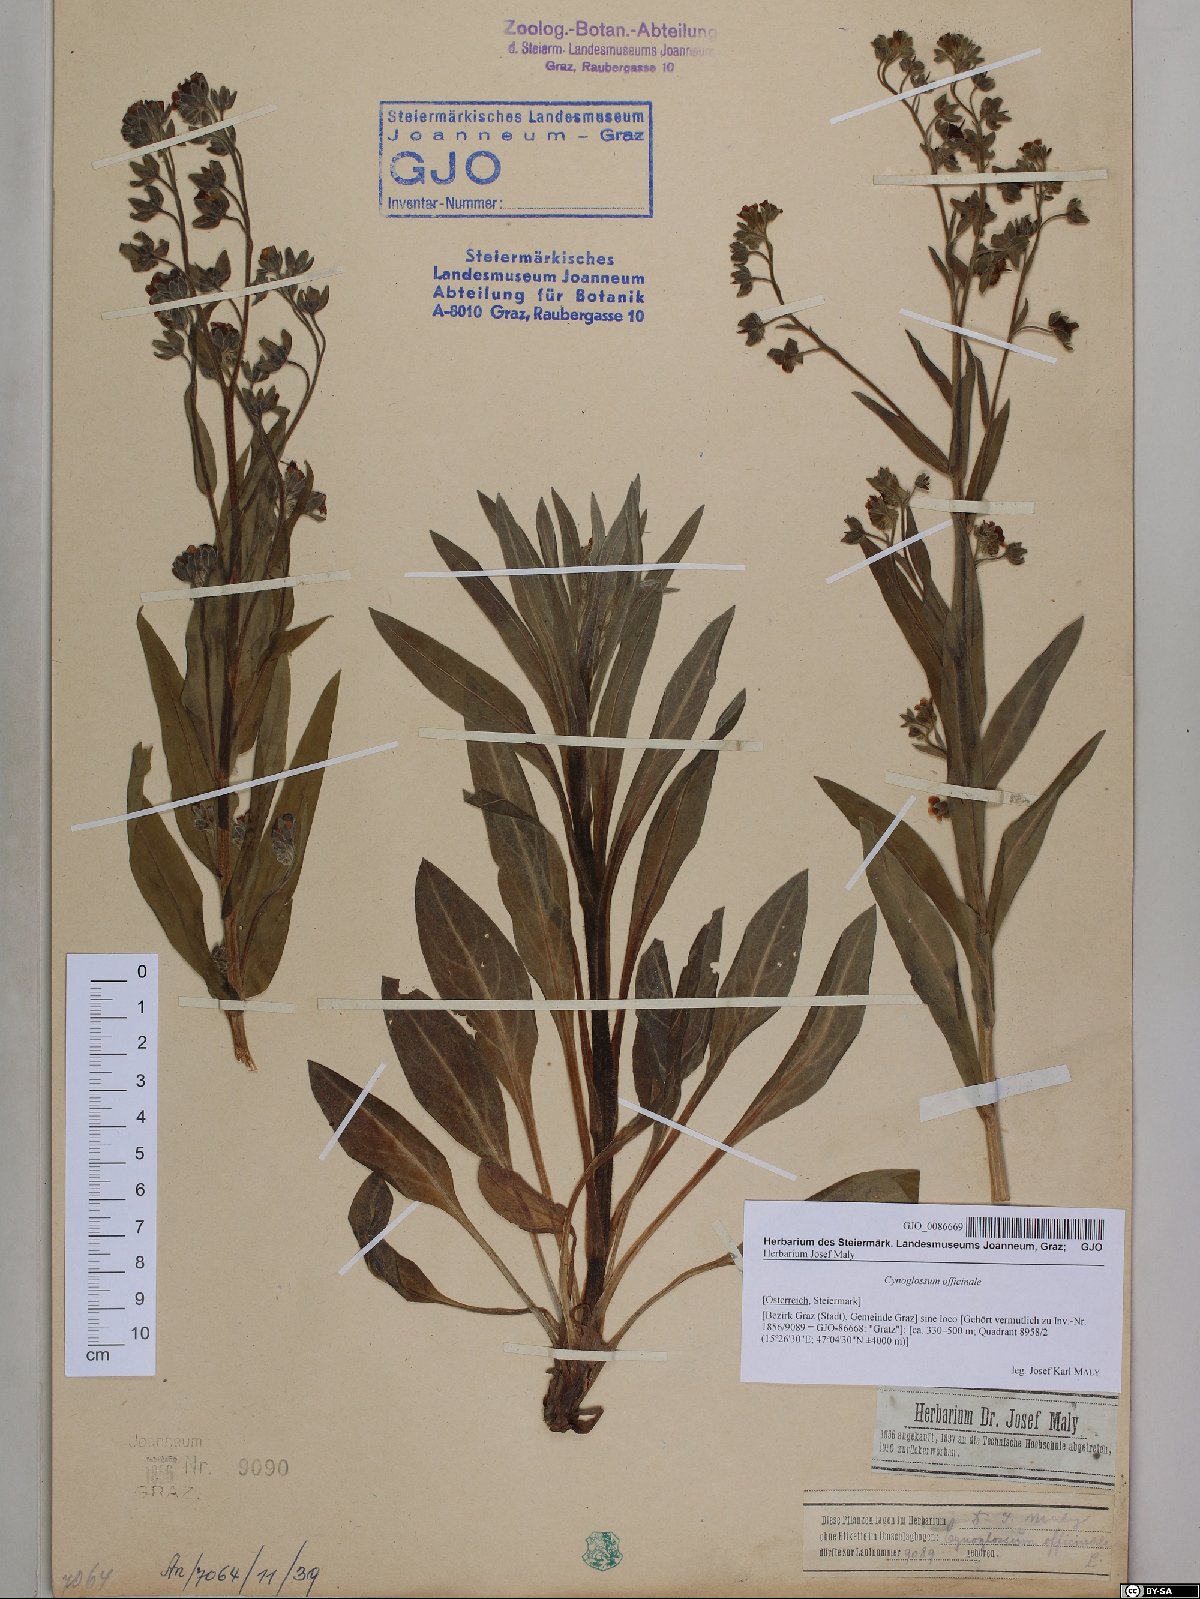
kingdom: Plantae
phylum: Tracheophyta
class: Magnoliopsida
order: Boraginales
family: Boraginaceae
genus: Cynoglossum
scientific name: Cynoglossum officinale
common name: Hound's-tongue
